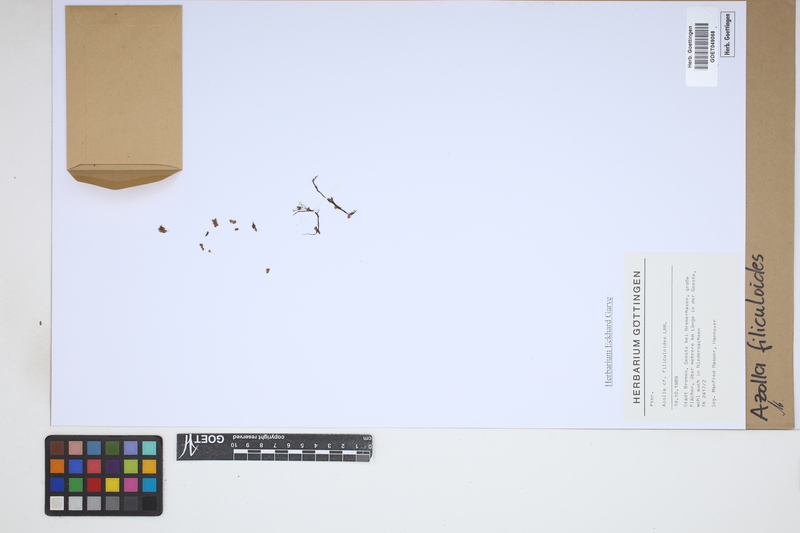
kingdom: Plantae
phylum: Tracheophyta
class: Polypodiopsida
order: Salviniales
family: Salviniaceae
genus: Azolla
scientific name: Azolla filiculoides
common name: Water fern
